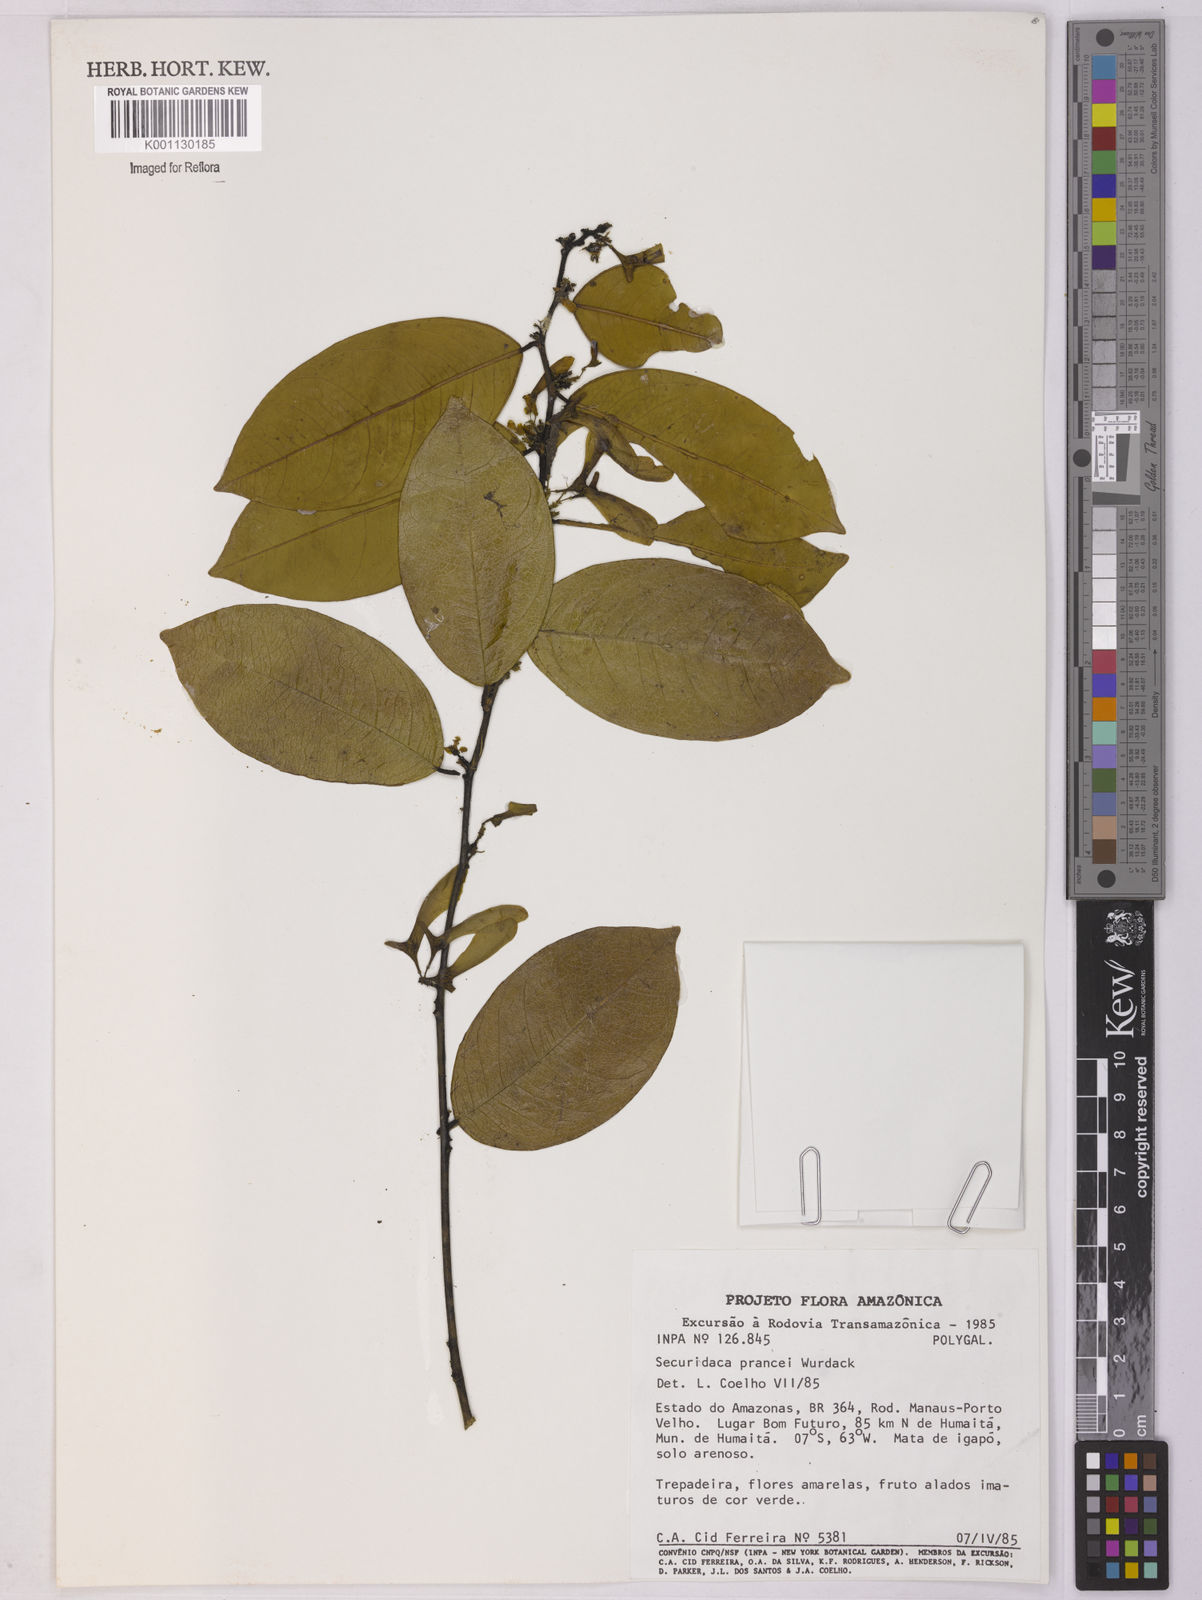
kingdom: Plantae
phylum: Tracheophyta
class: Magnoliopsida
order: Fabales
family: Polygalaceae
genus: Securidaca
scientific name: Securidaca prancei
